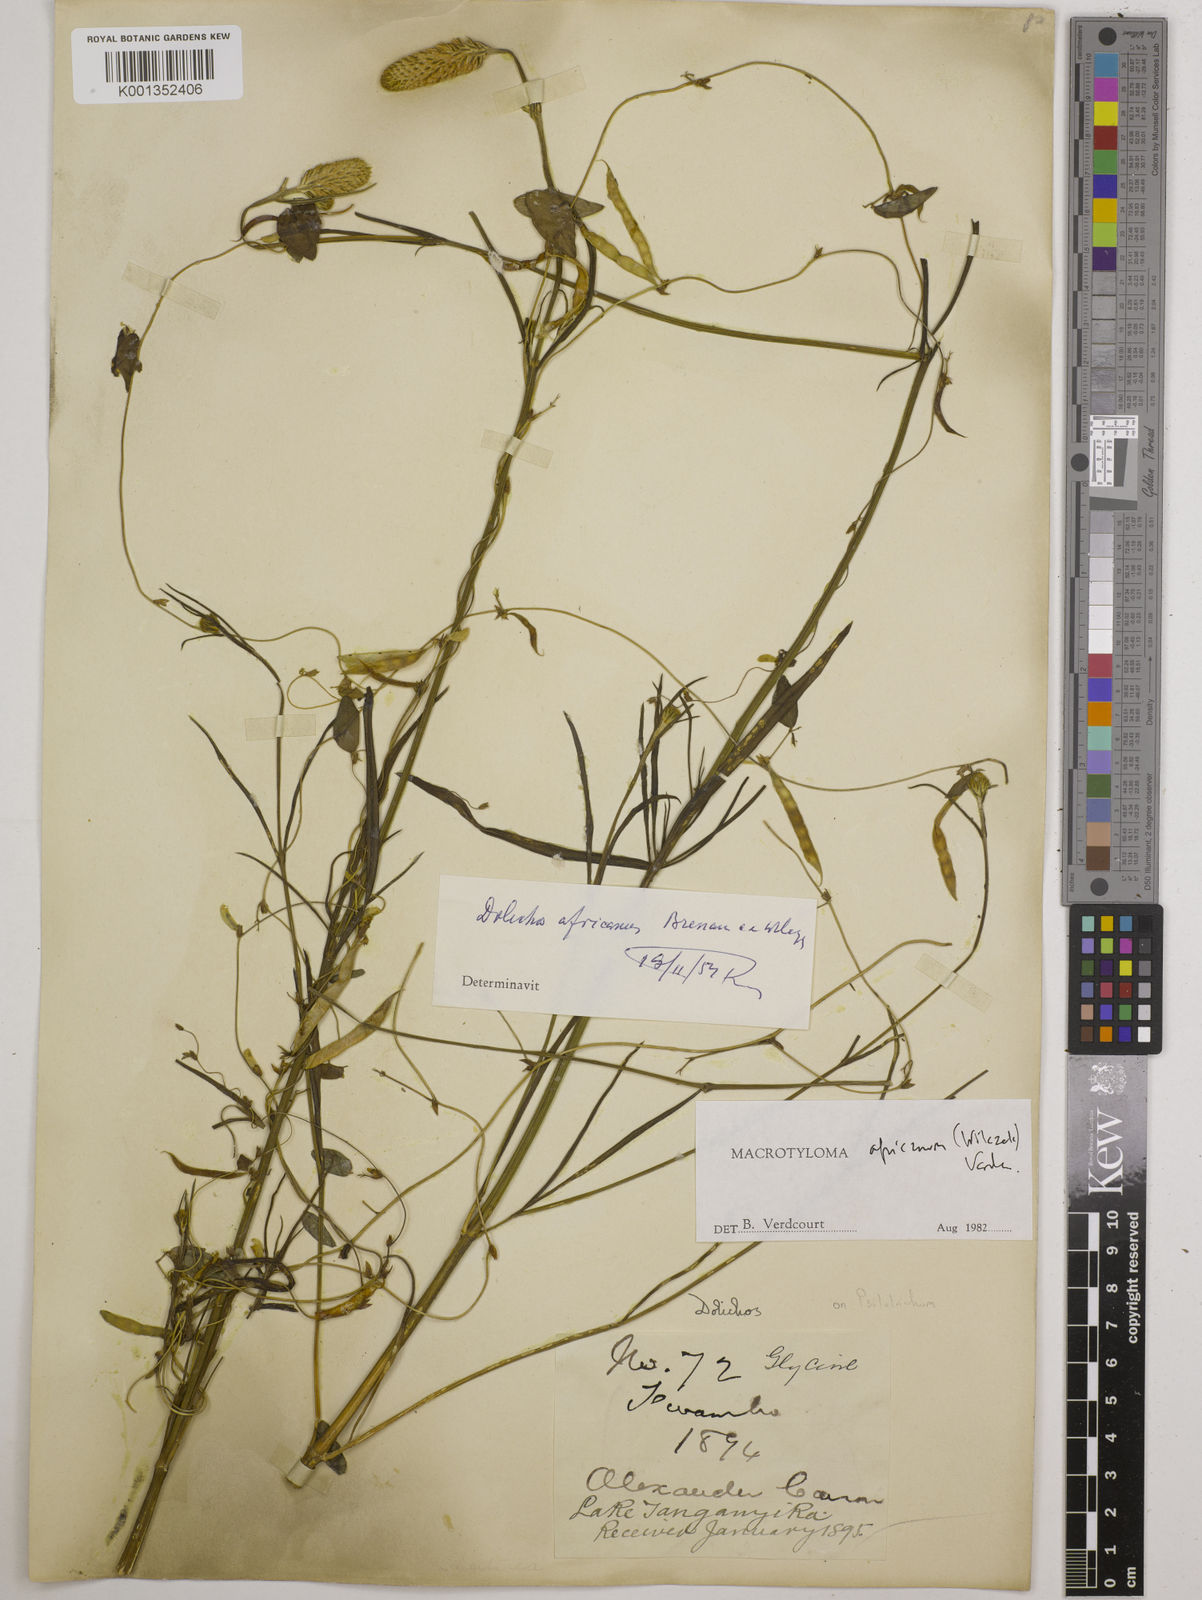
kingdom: Plantae
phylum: Tracheophyta
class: Magnoliopsida
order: Fabales
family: Fabaceae
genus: Macrotyloma
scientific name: Macrotyloma africanum
